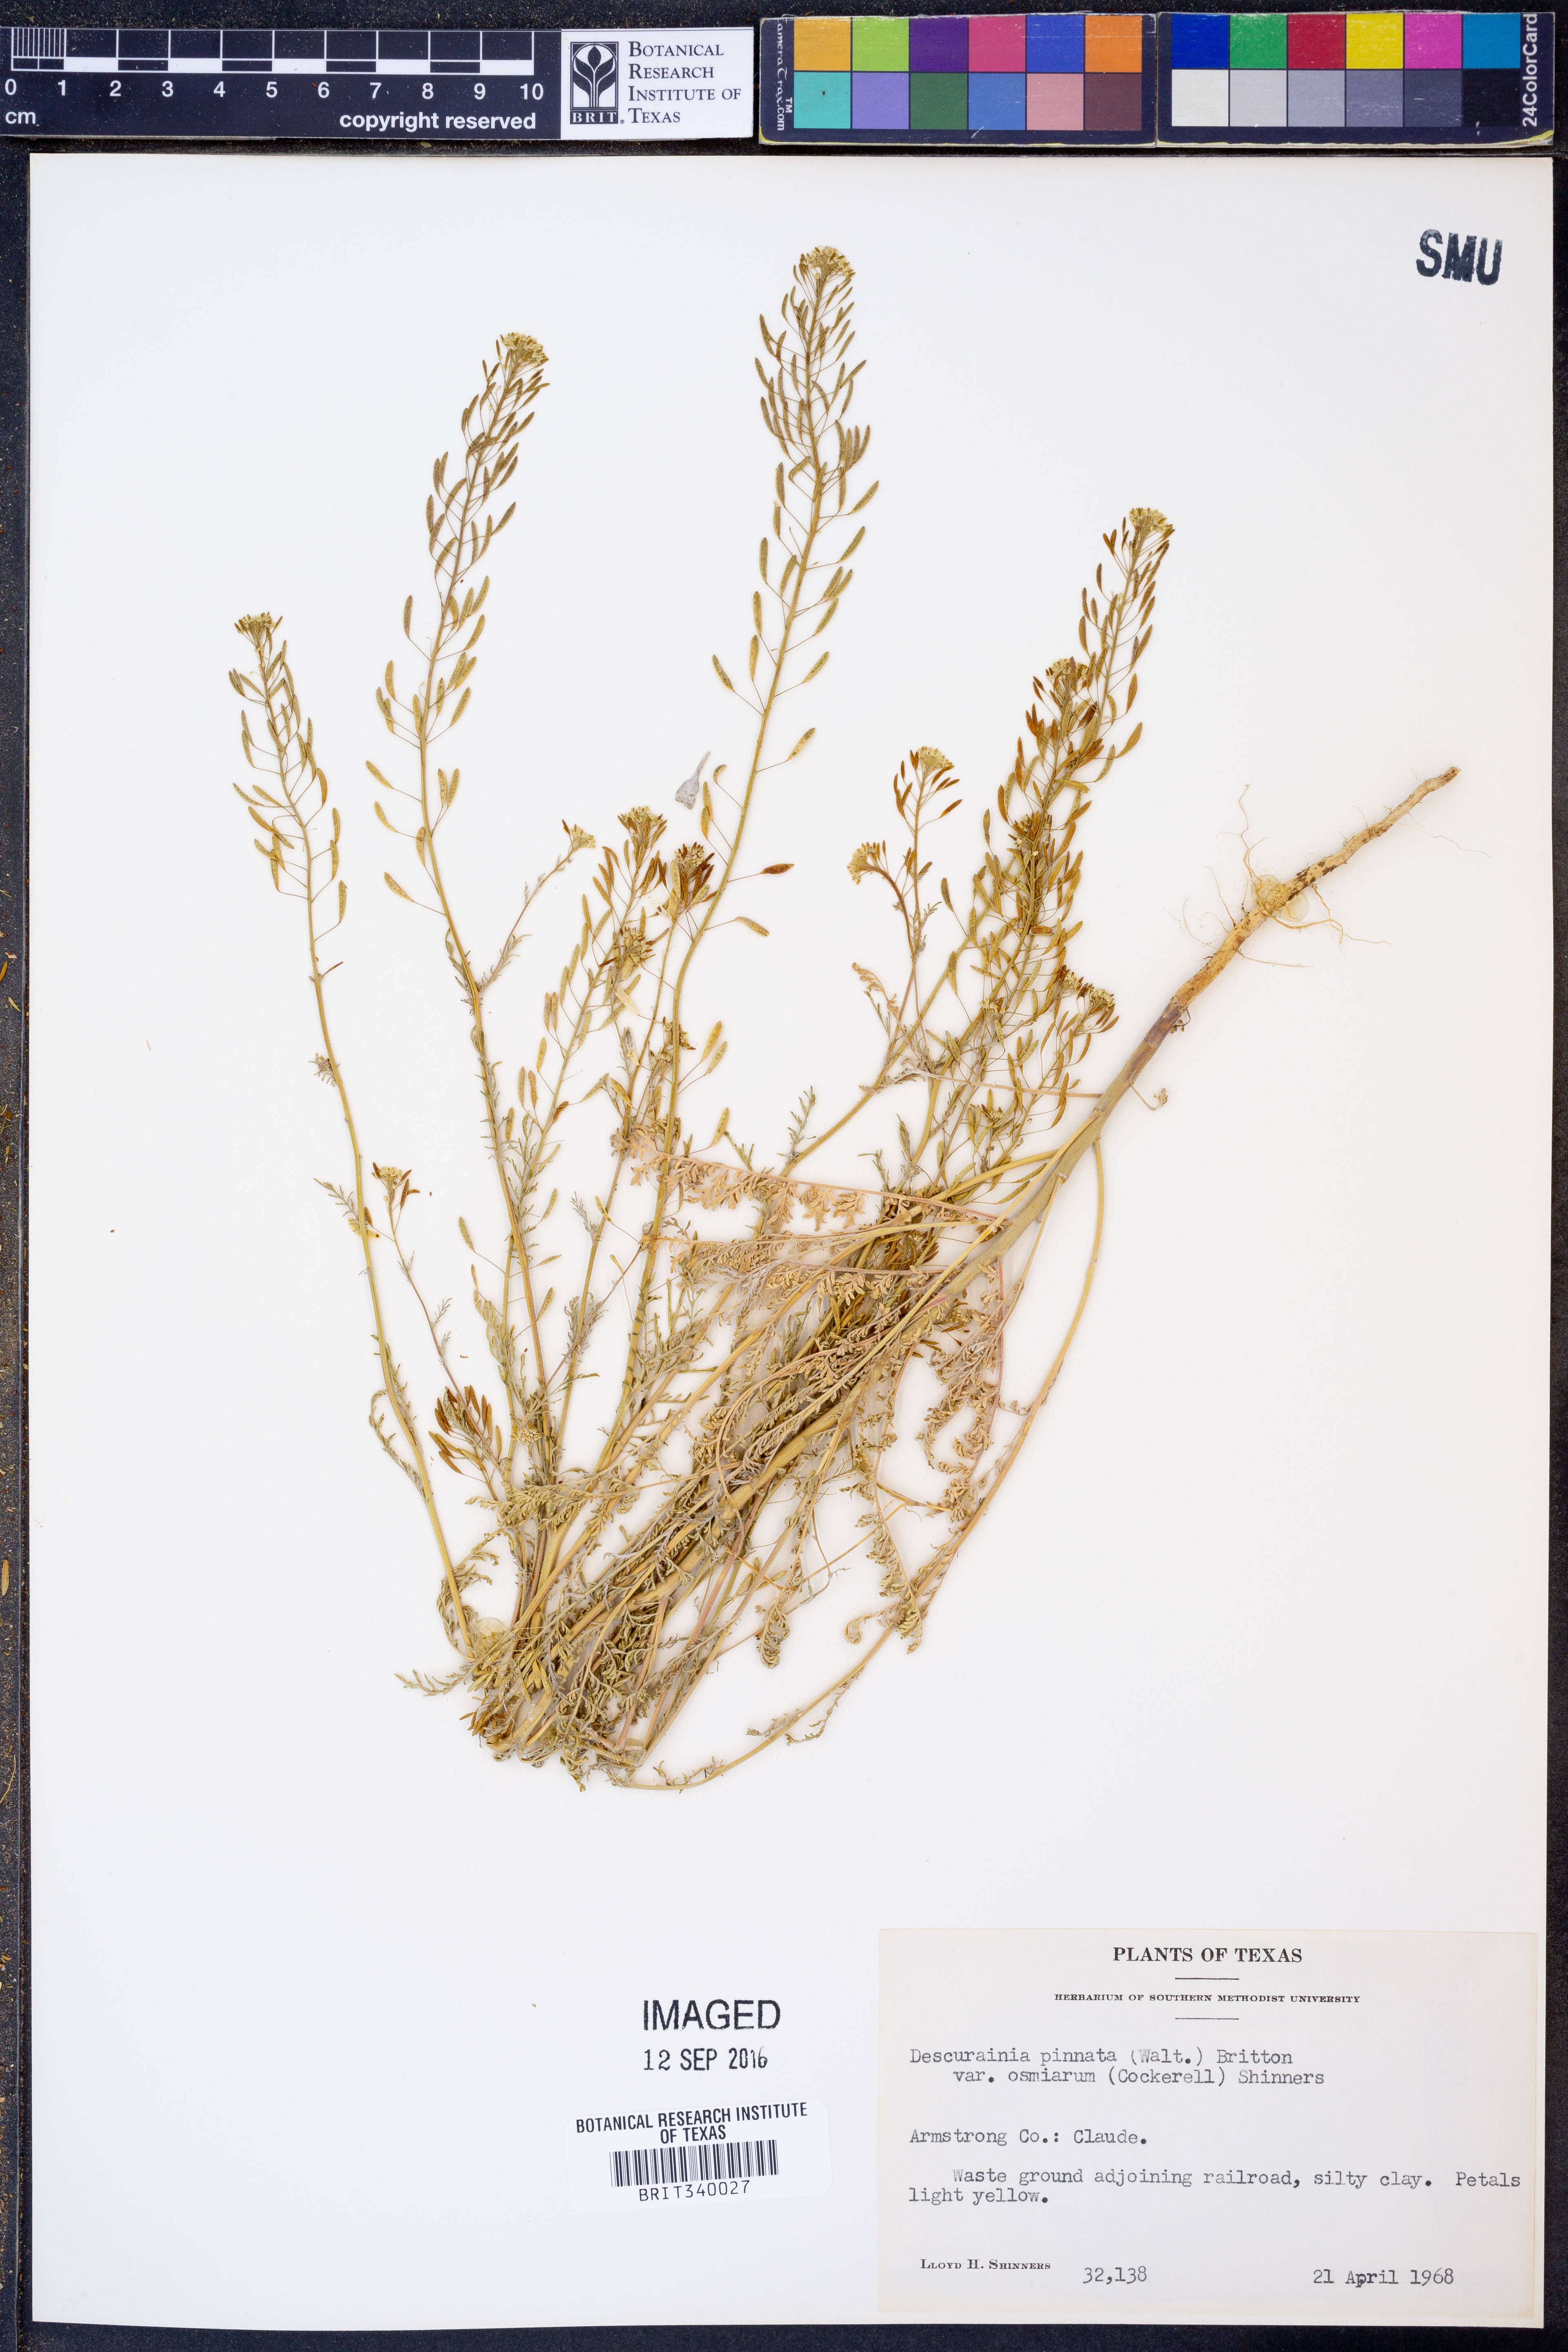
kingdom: Plantae
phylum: Tracheophyta
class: Magnoliopsida
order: Brassicales
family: Brassicaceae
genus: Descurainia
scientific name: Descurainia pinnata
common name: Western tansy mustard
